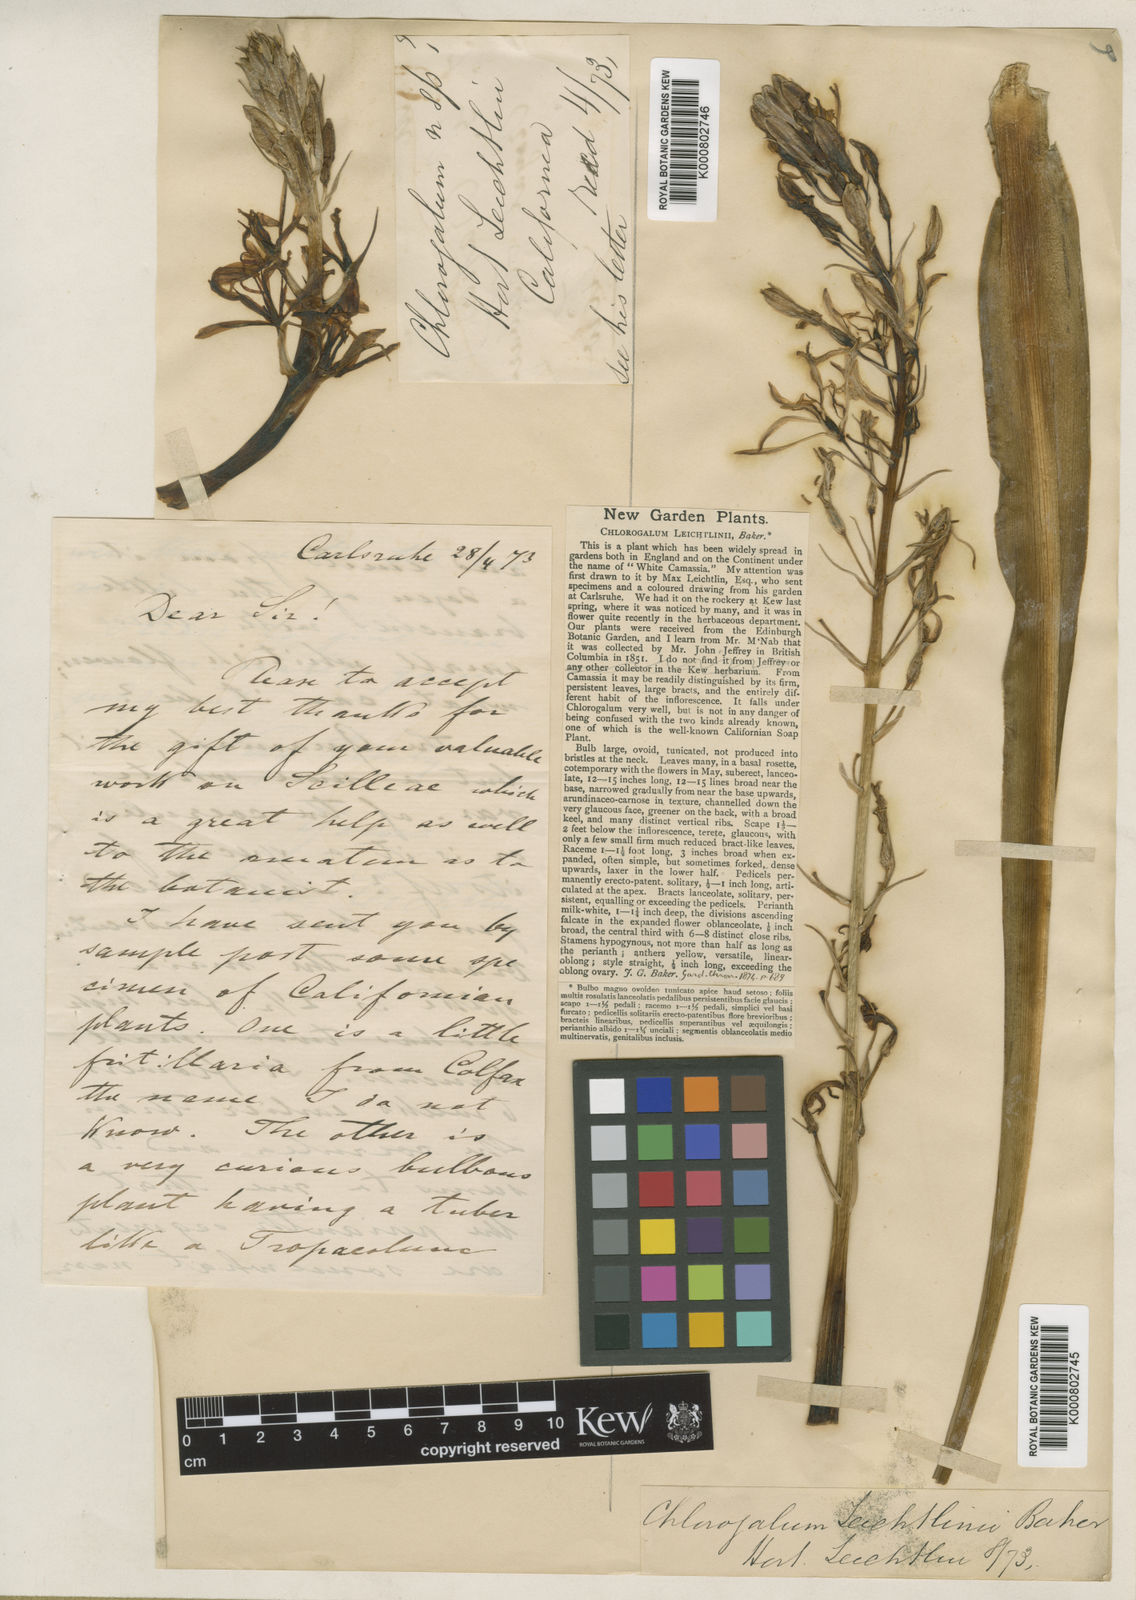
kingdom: Plantae
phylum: Tracheophyta
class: Liliopsida
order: Asparagales
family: Asparagaceae
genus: Camassia
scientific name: Camassia leichtlinii
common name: Leichtlin's camas
